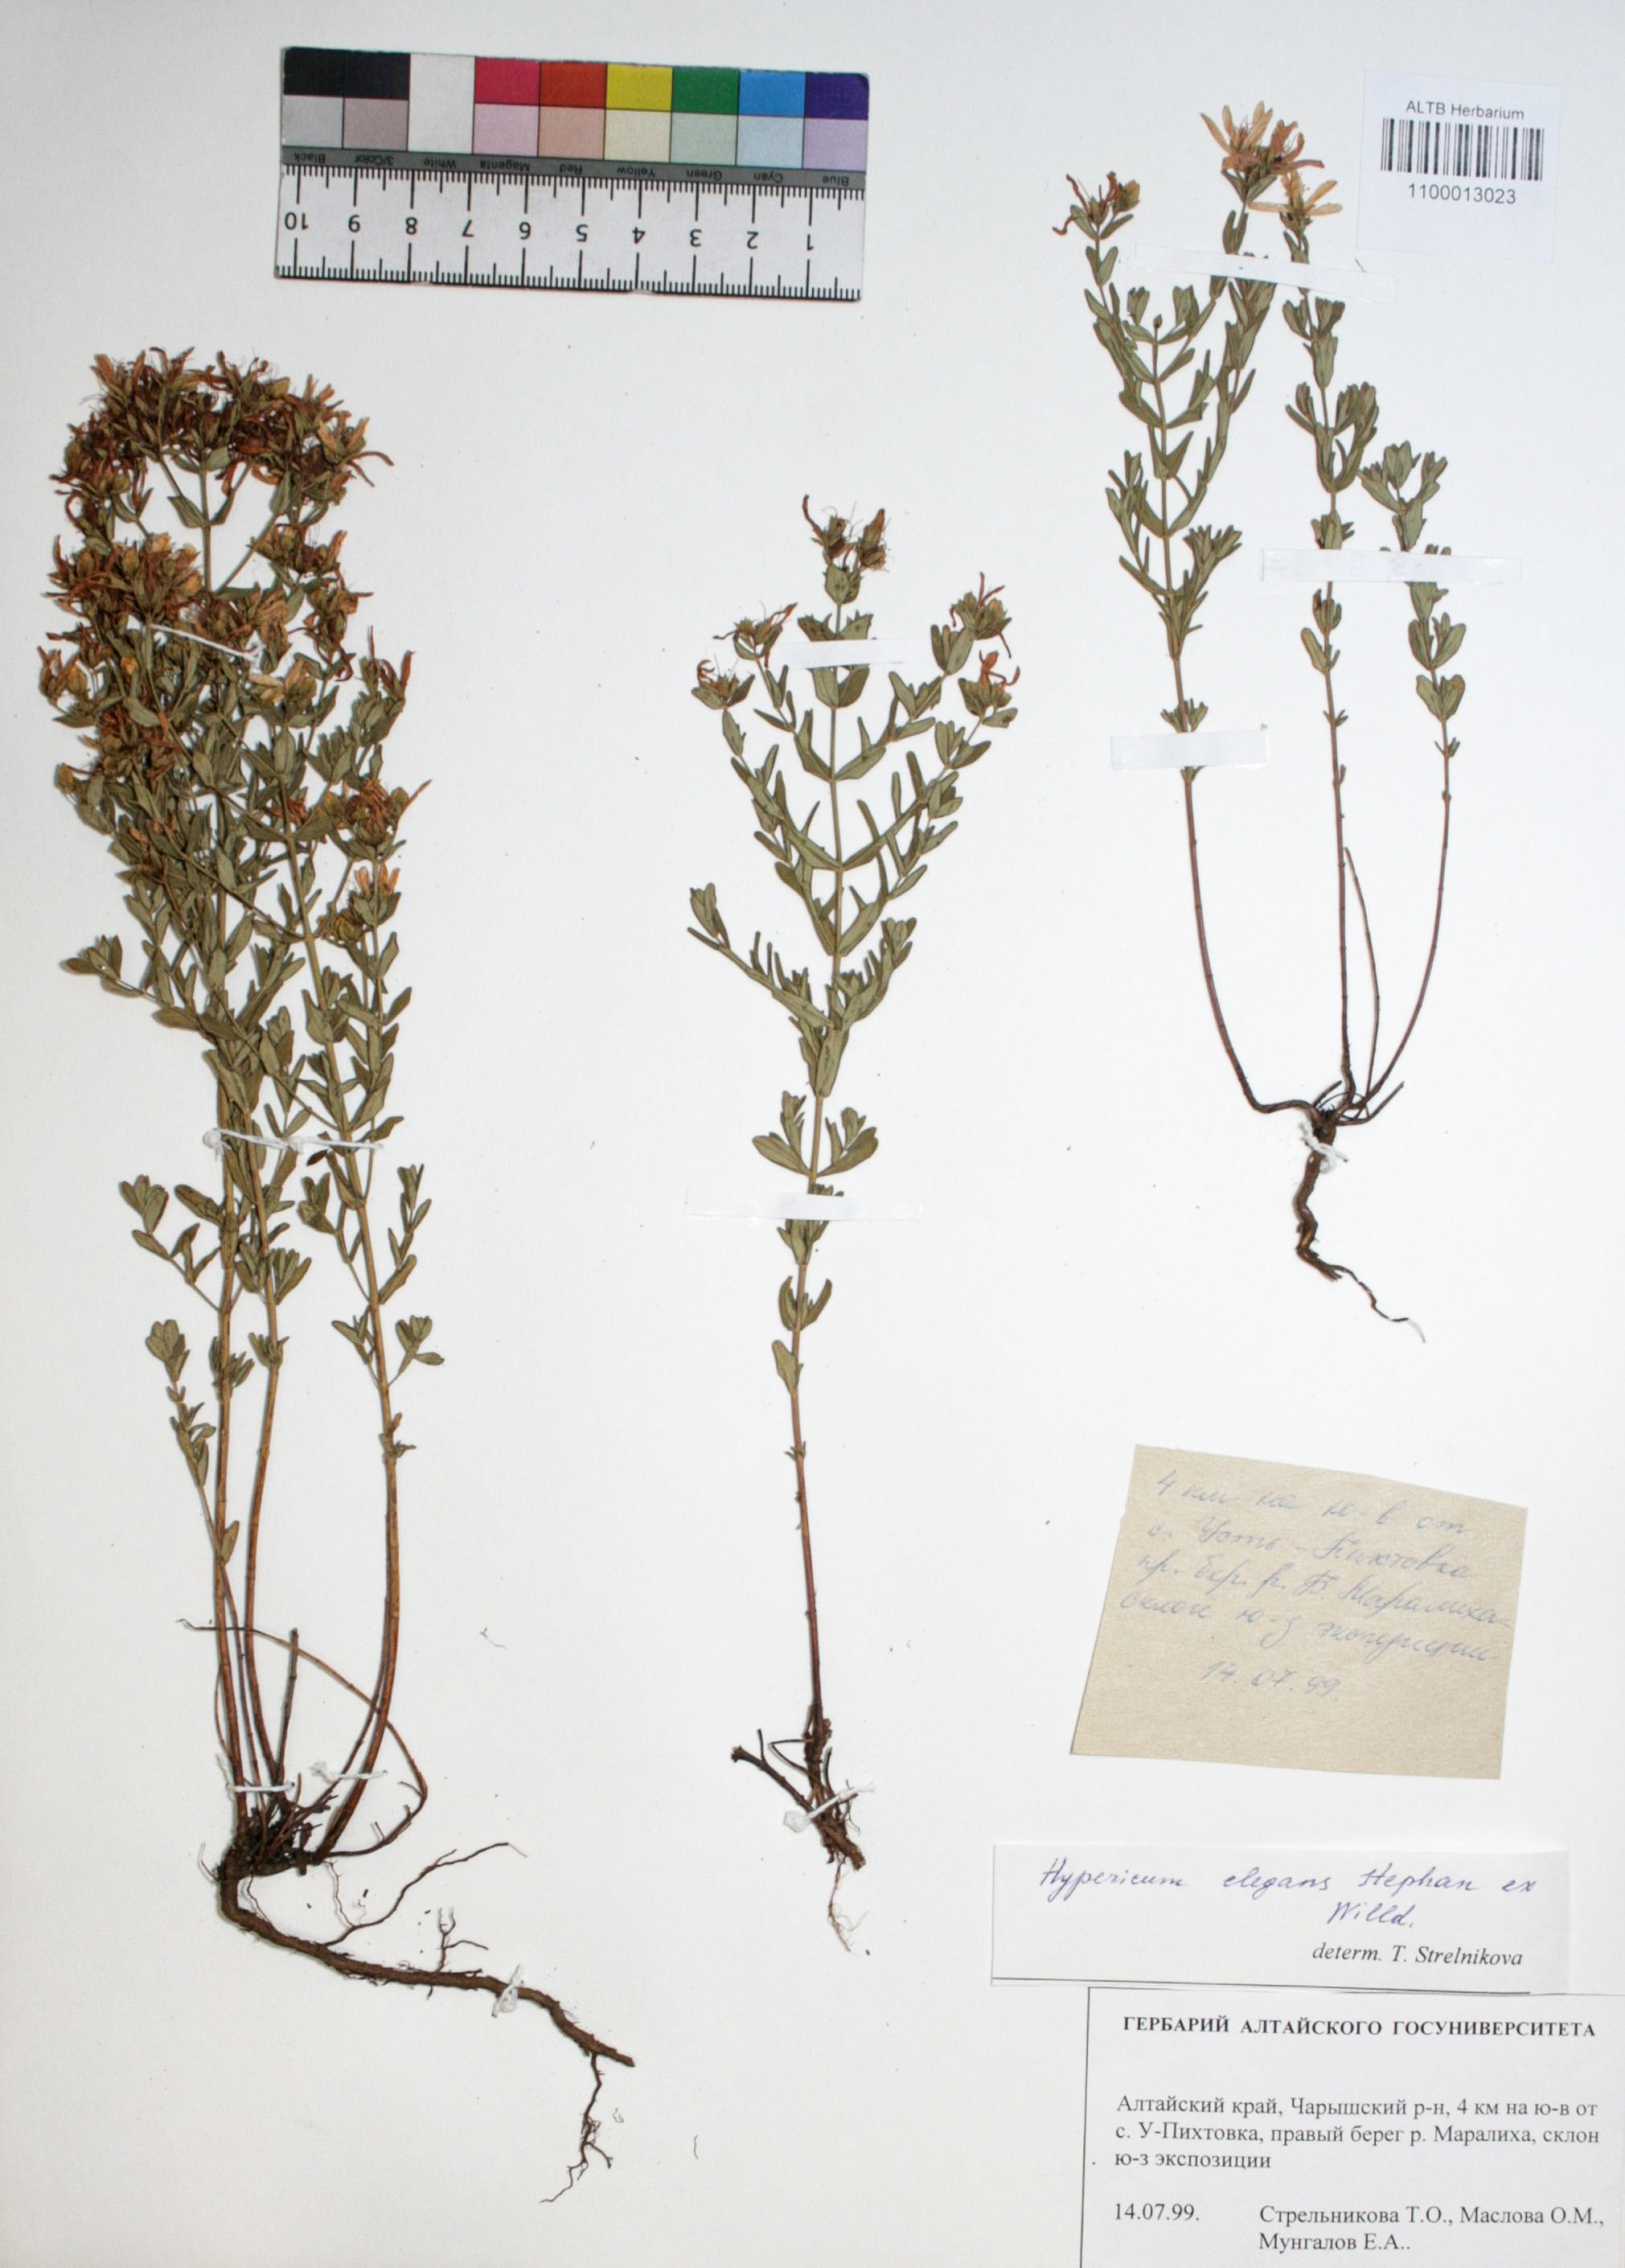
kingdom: Plantae
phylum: Tracheophyta
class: Magnoliopsida
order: Malpighiales
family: Hypericaceae
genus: Hypericum
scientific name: Hypericum elegans
